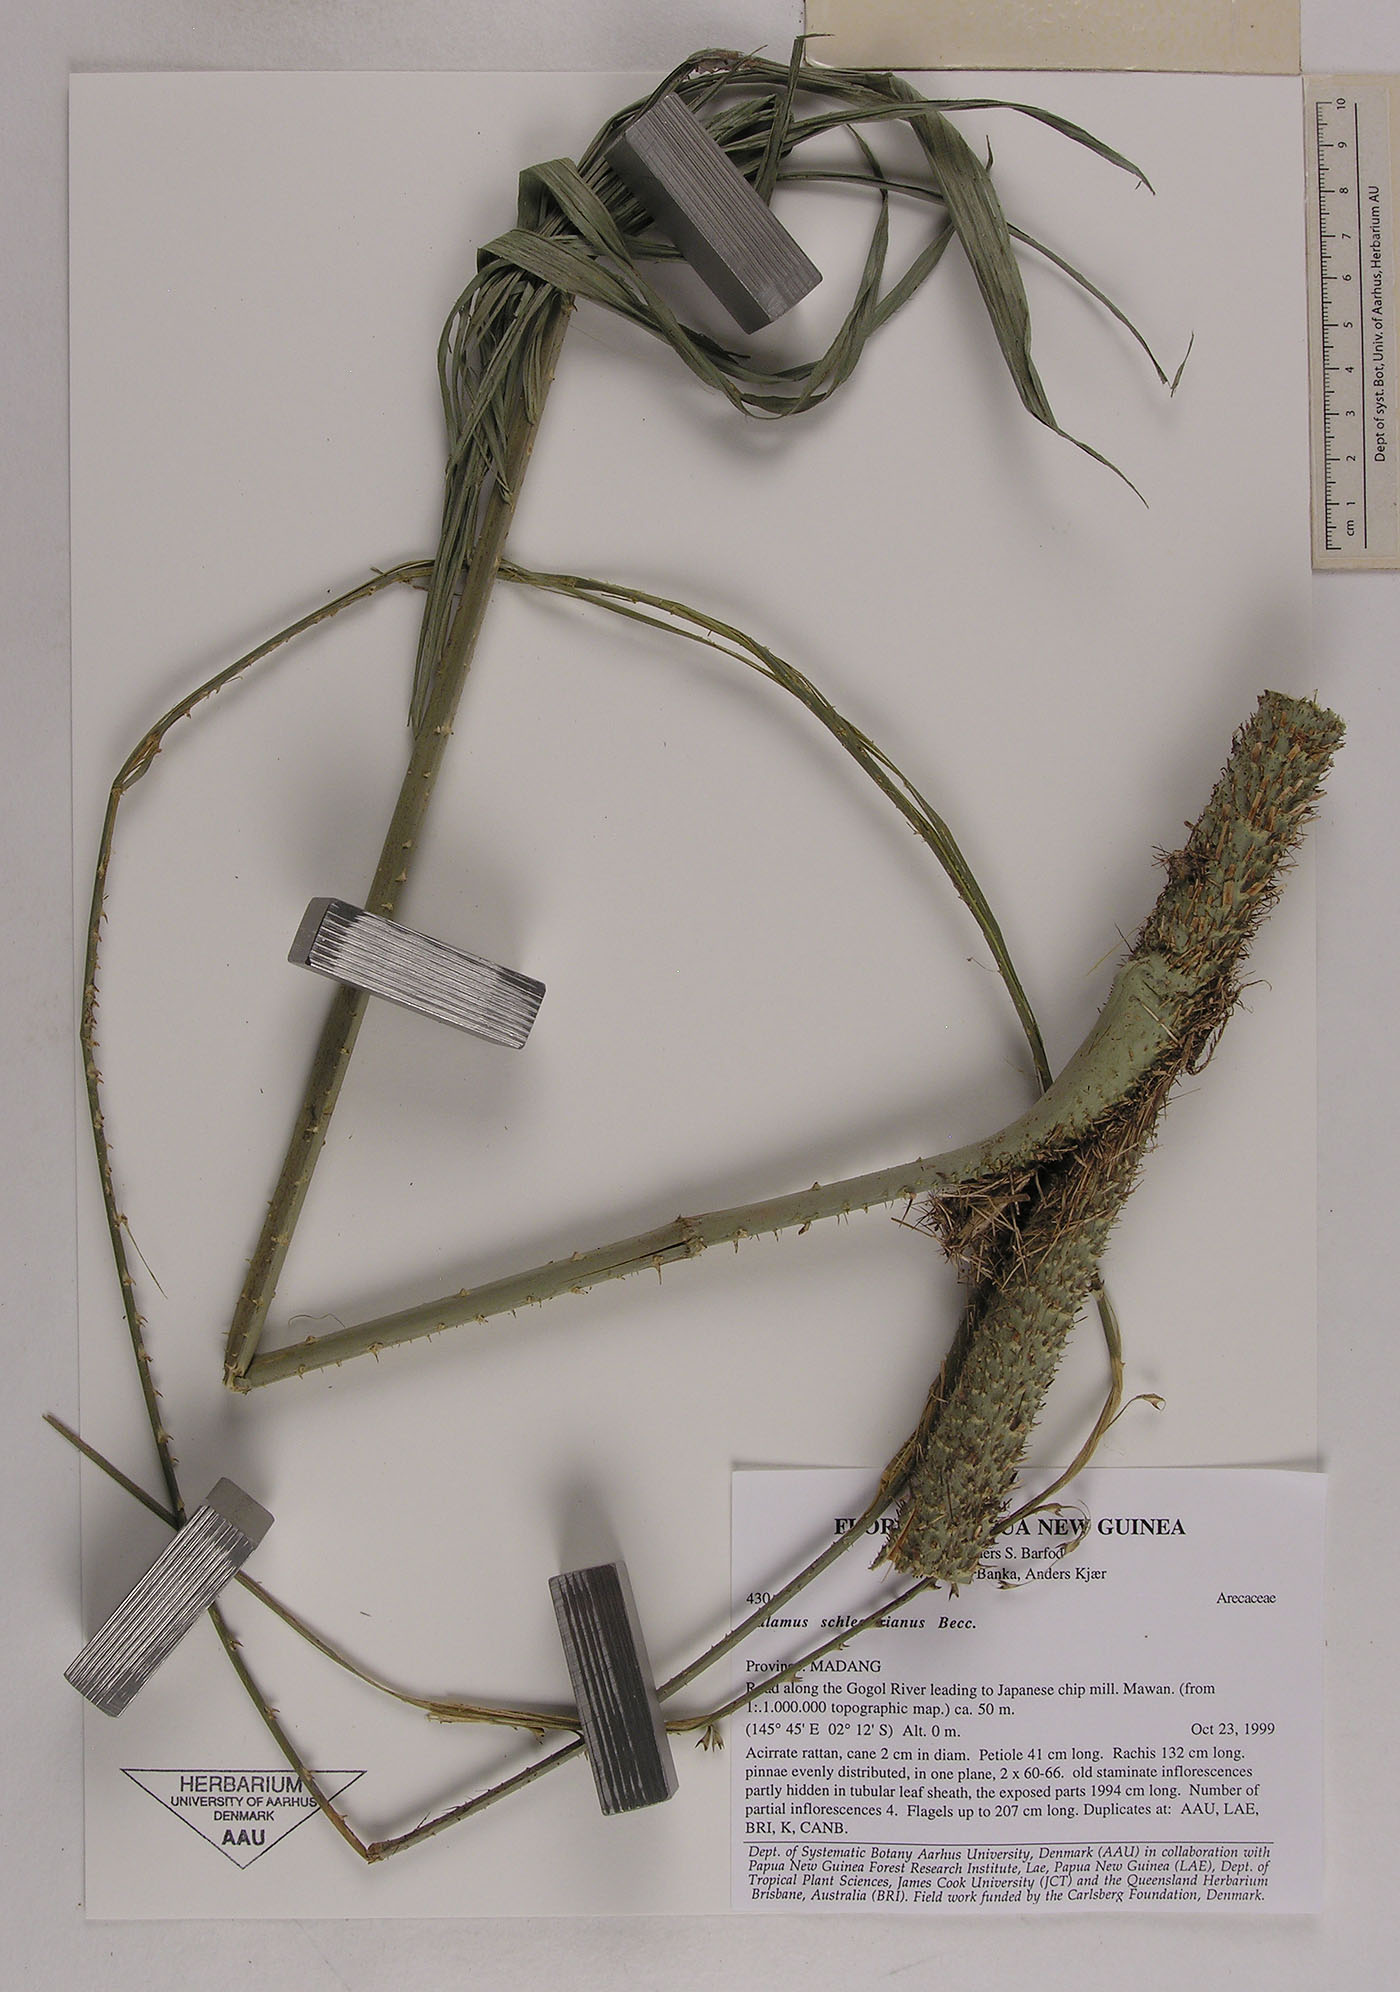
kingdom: Plantae
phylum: Tracheophyta
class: Liliopsida
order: Arecales
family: Arecaceae
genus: Calamus
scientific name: Calamus schlechterianus
